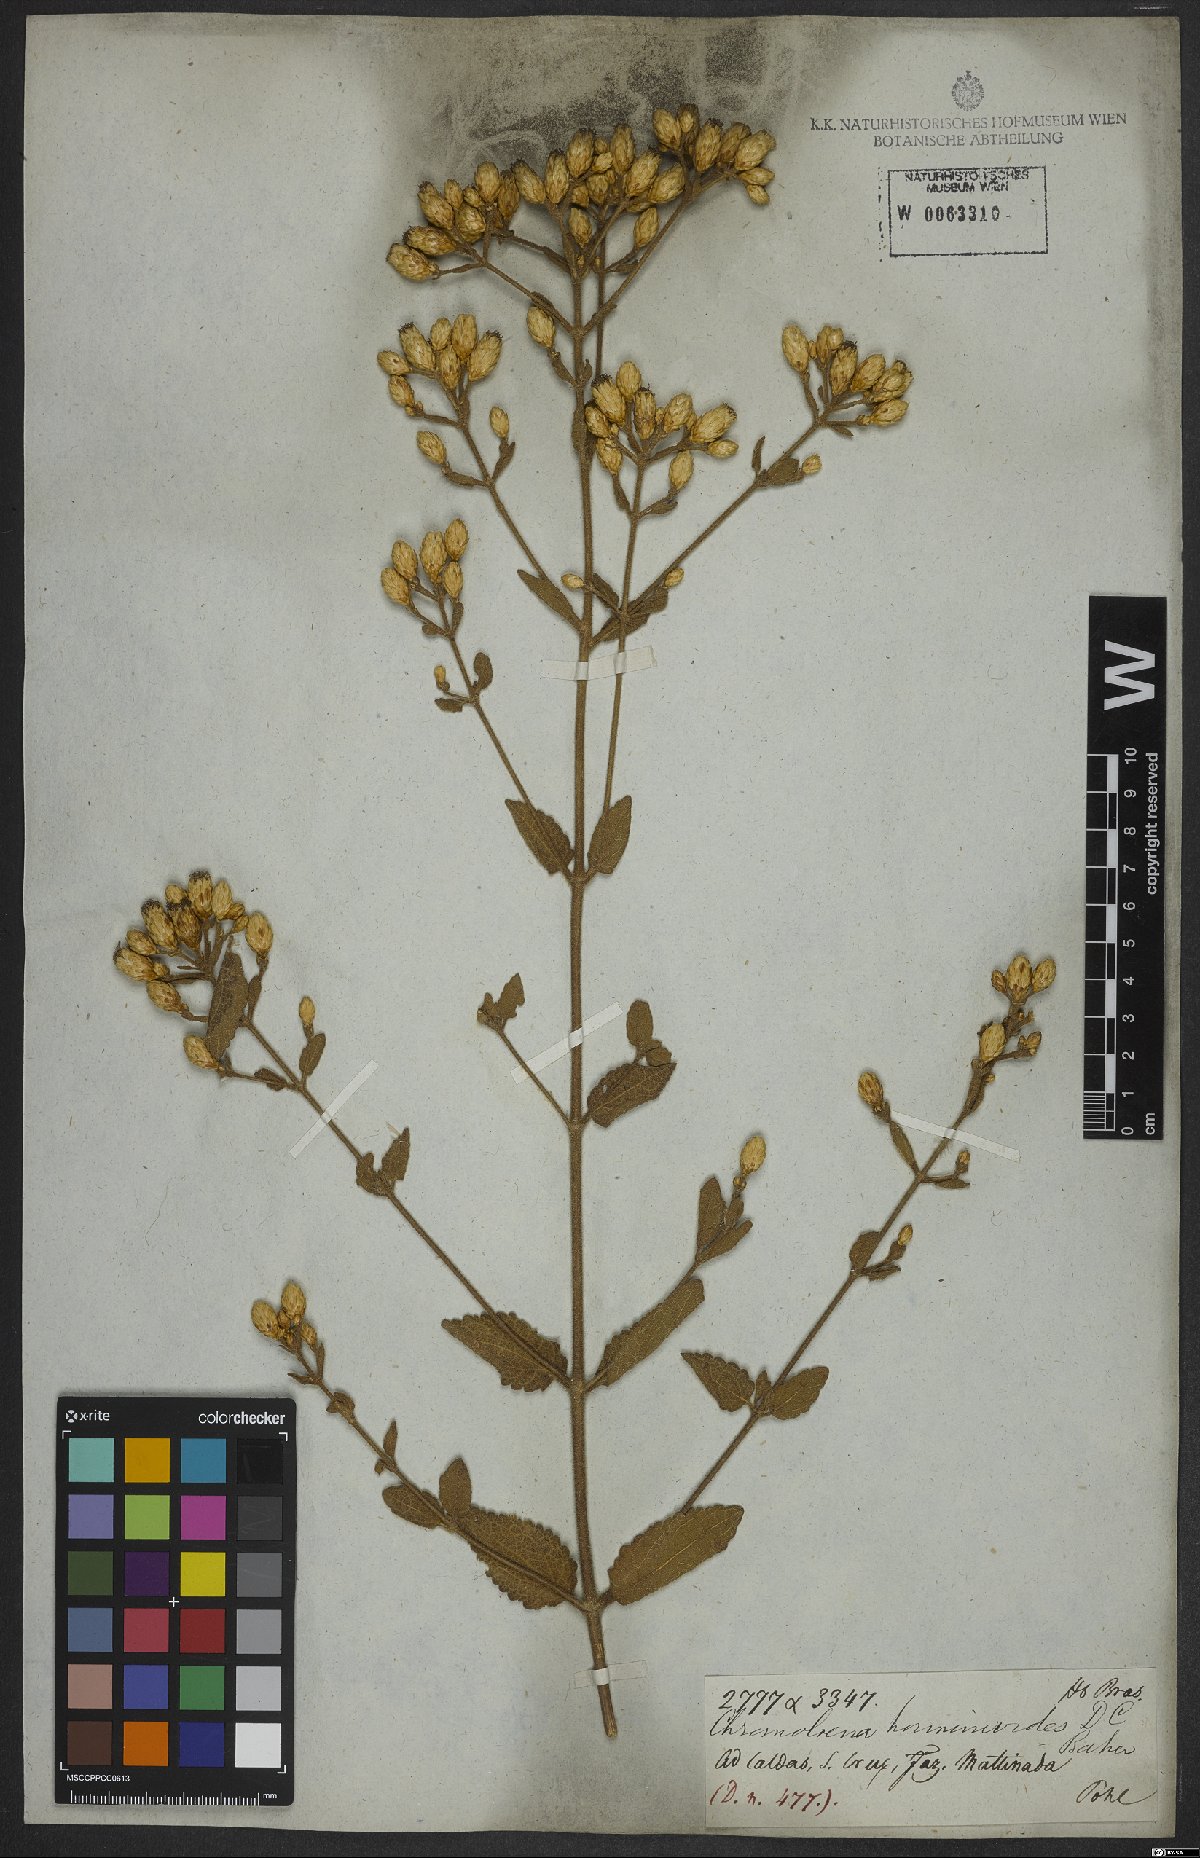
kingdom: Plantae
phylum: Tracheophyta
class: Magnoliopsida
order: Asterales
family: Asteraceae
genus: Chromolaena
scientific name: Chromolaena horminoides
